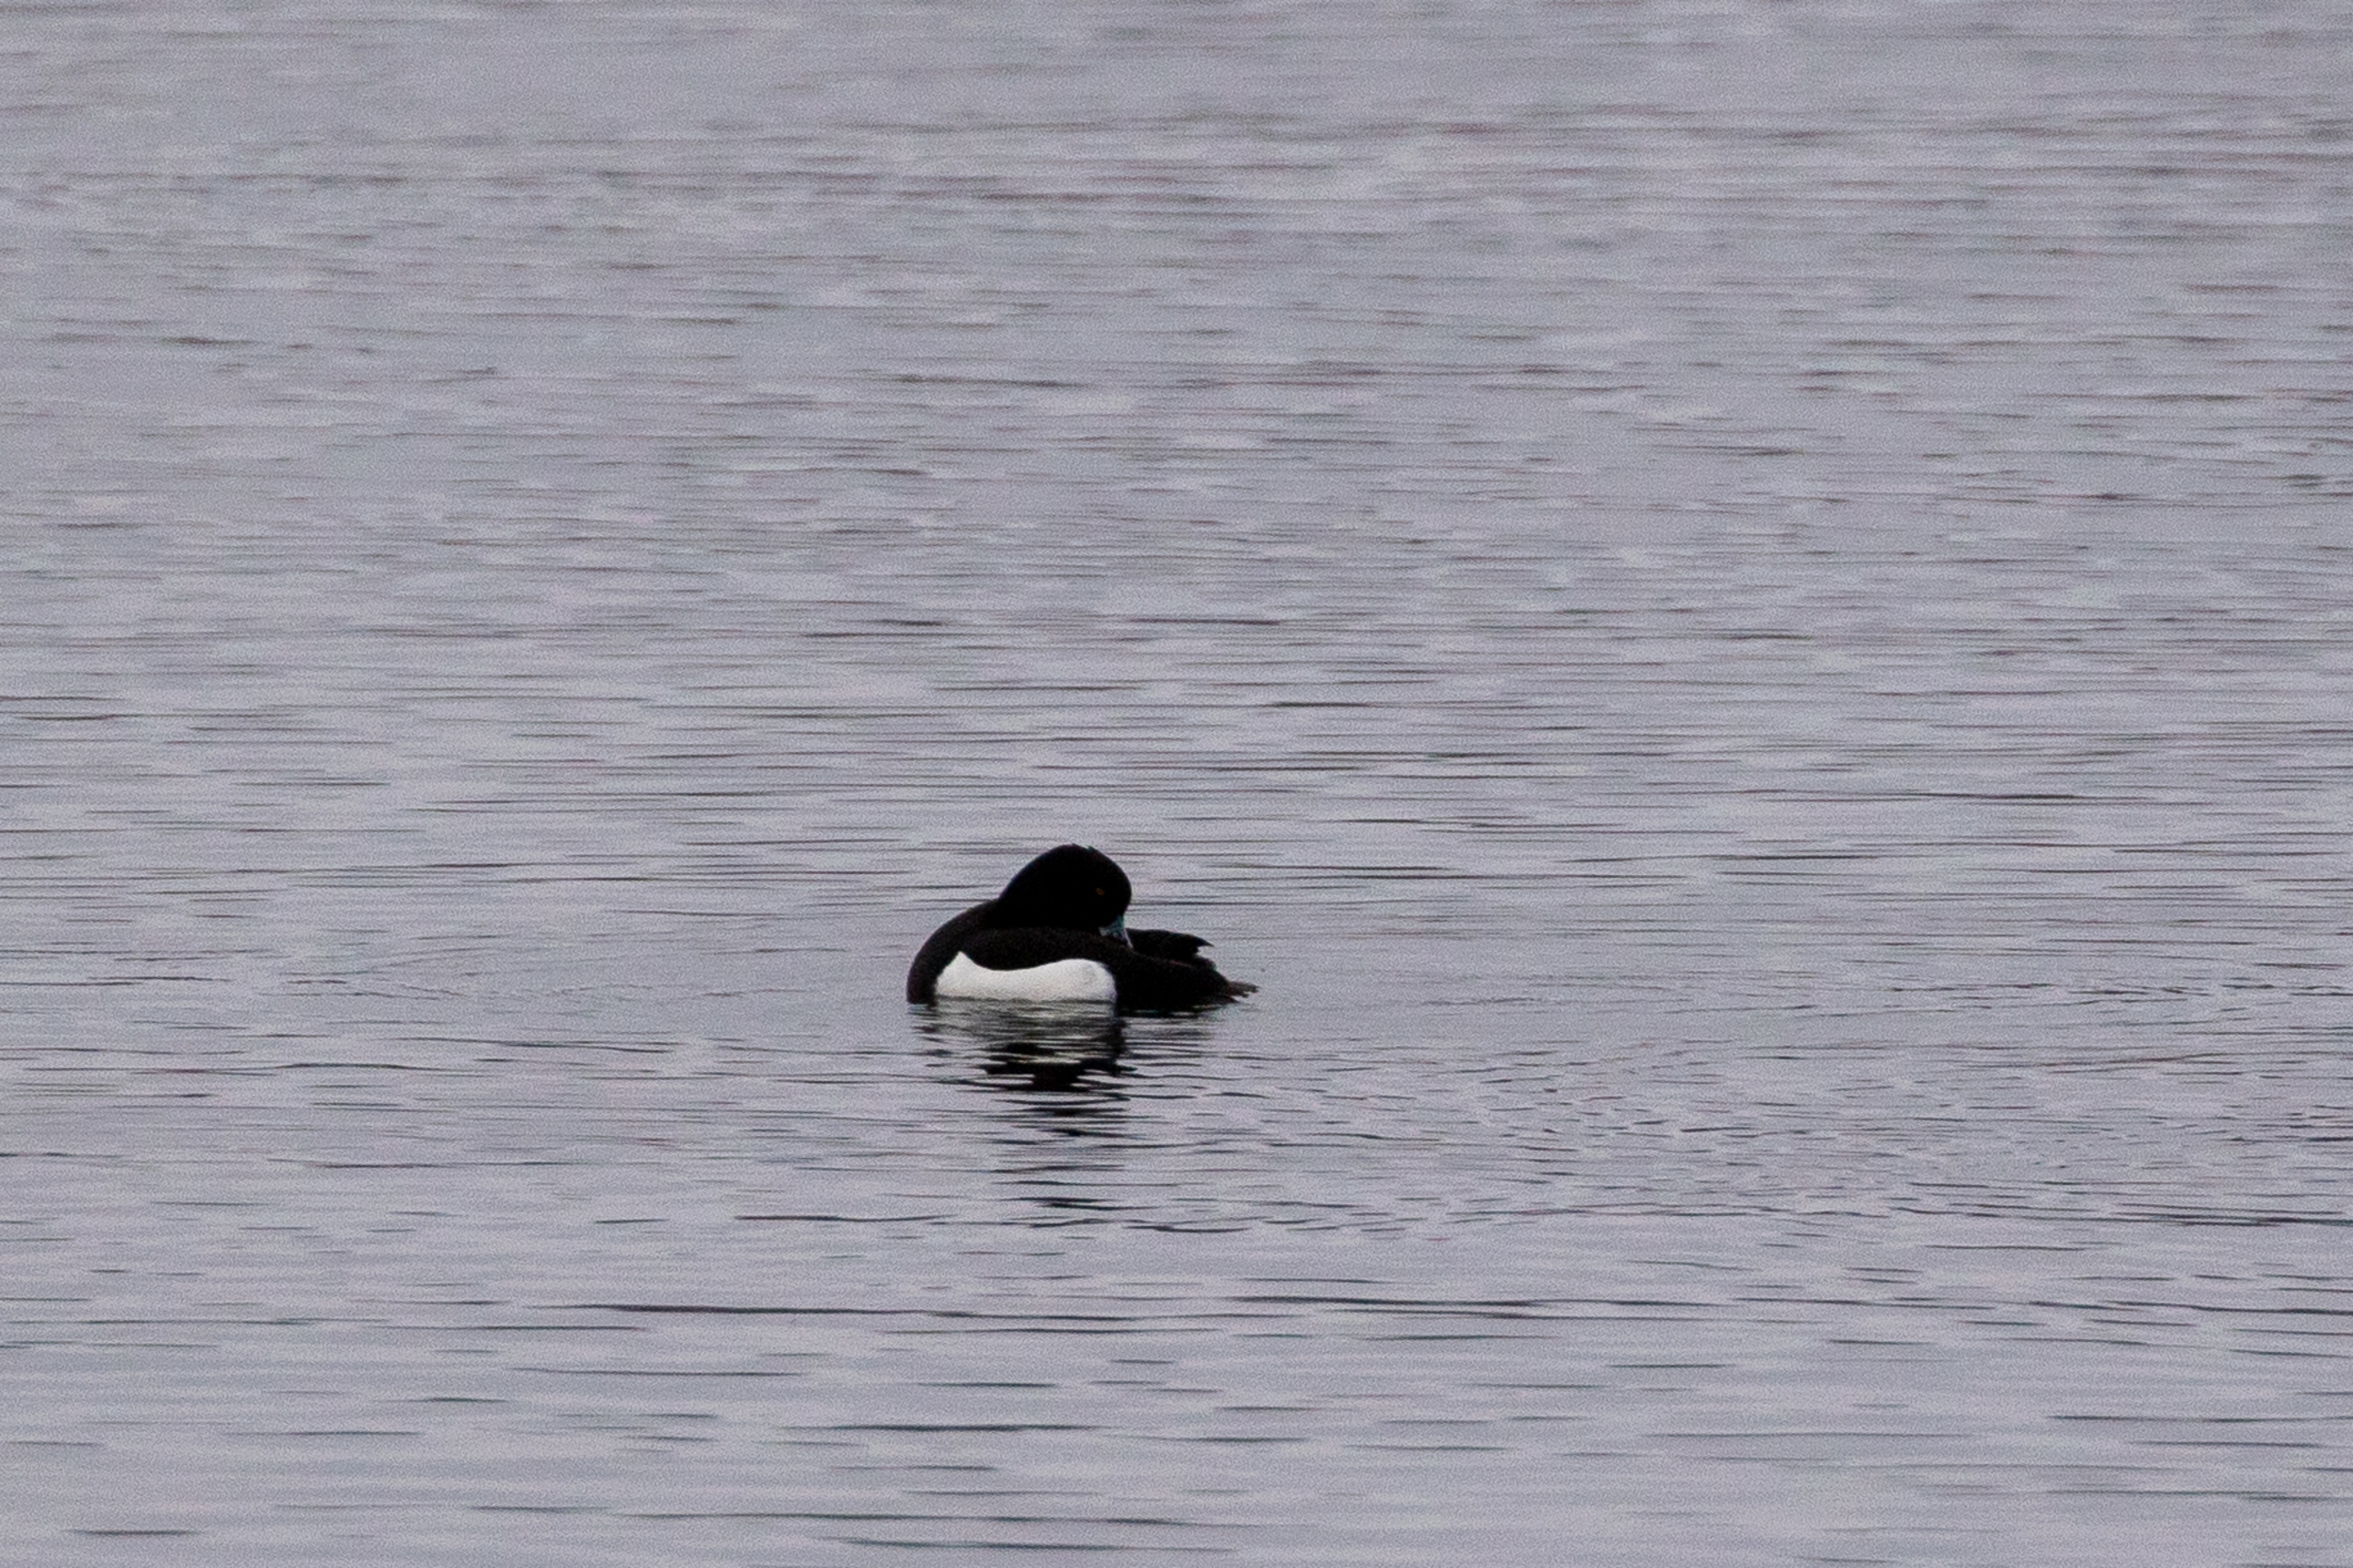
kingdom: Animalia
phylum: Chordata
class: Aves
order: Anseriformes
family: Anatidae
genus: Aythya
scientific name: Aythya fuligula
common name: Troldand
